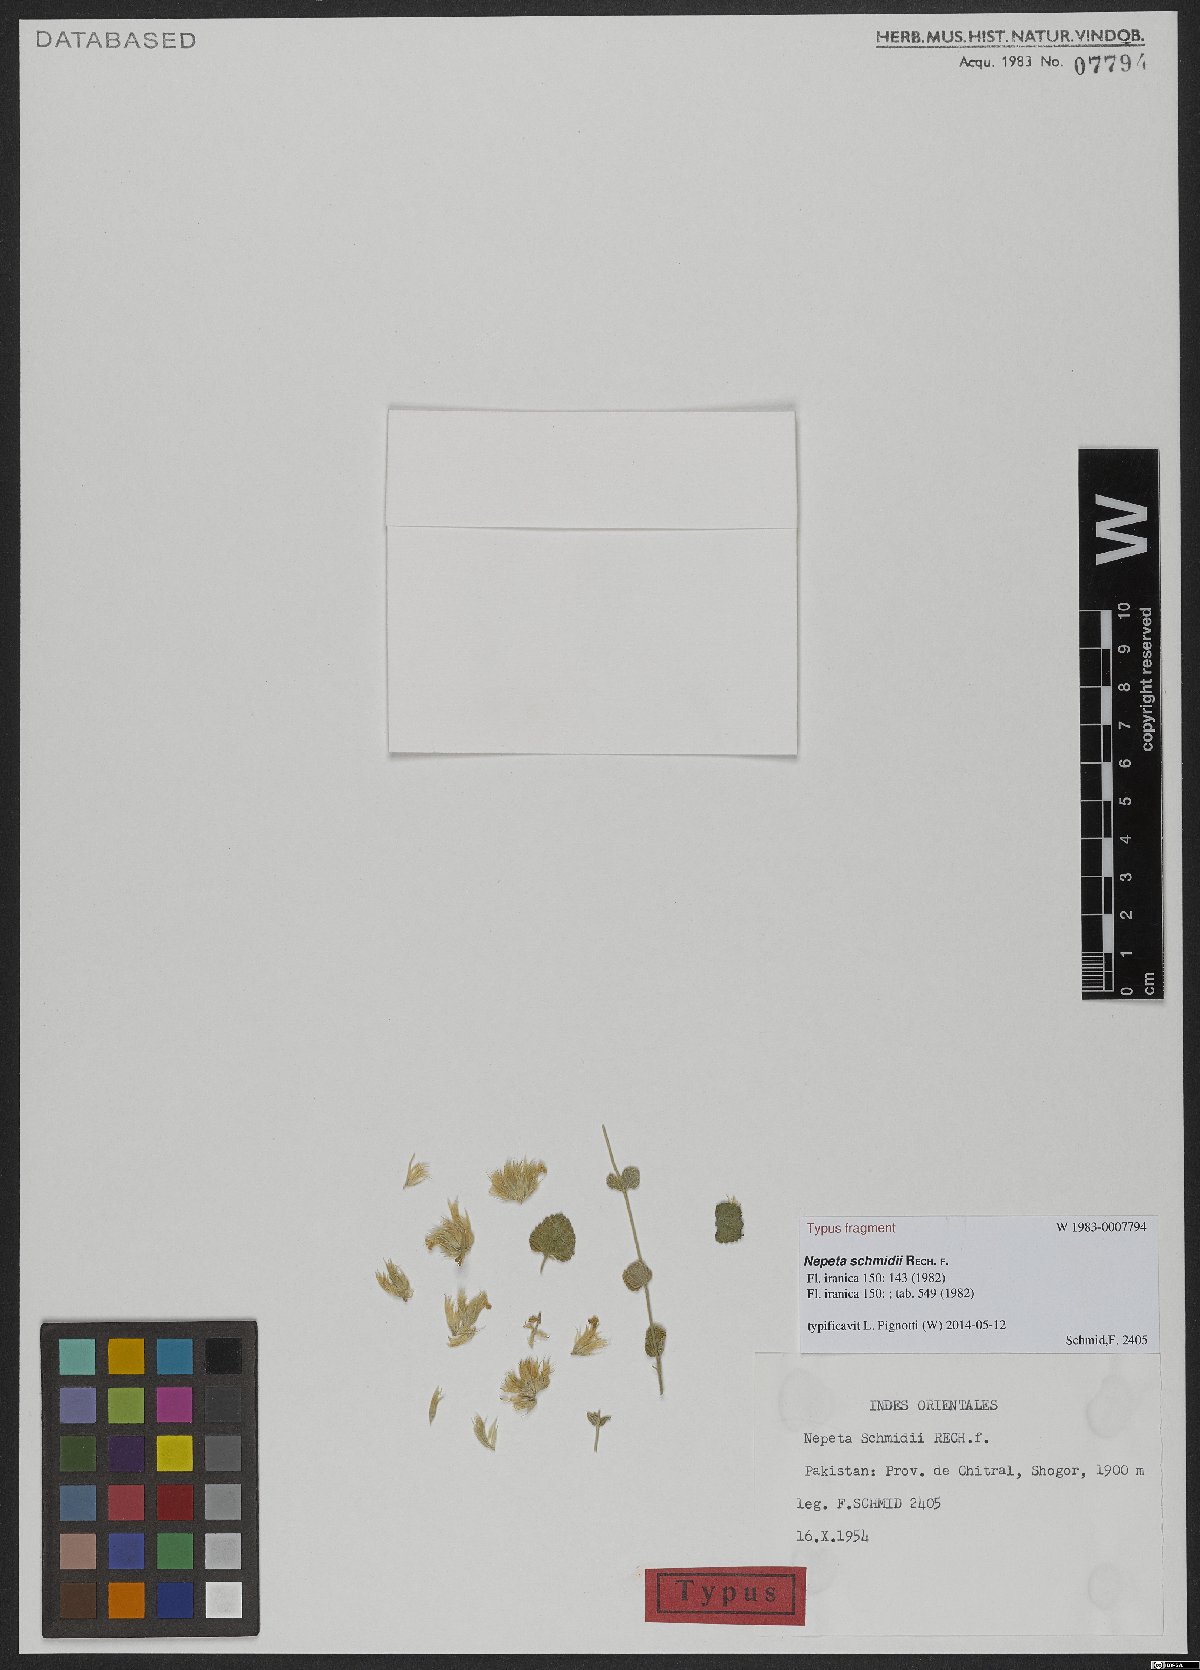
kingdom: Plantae
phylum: Tracheophyta
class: Magnoliopsida
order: Lamiales
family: Lamiaceae
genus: Nepeta
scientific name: Nepeta schmidii
